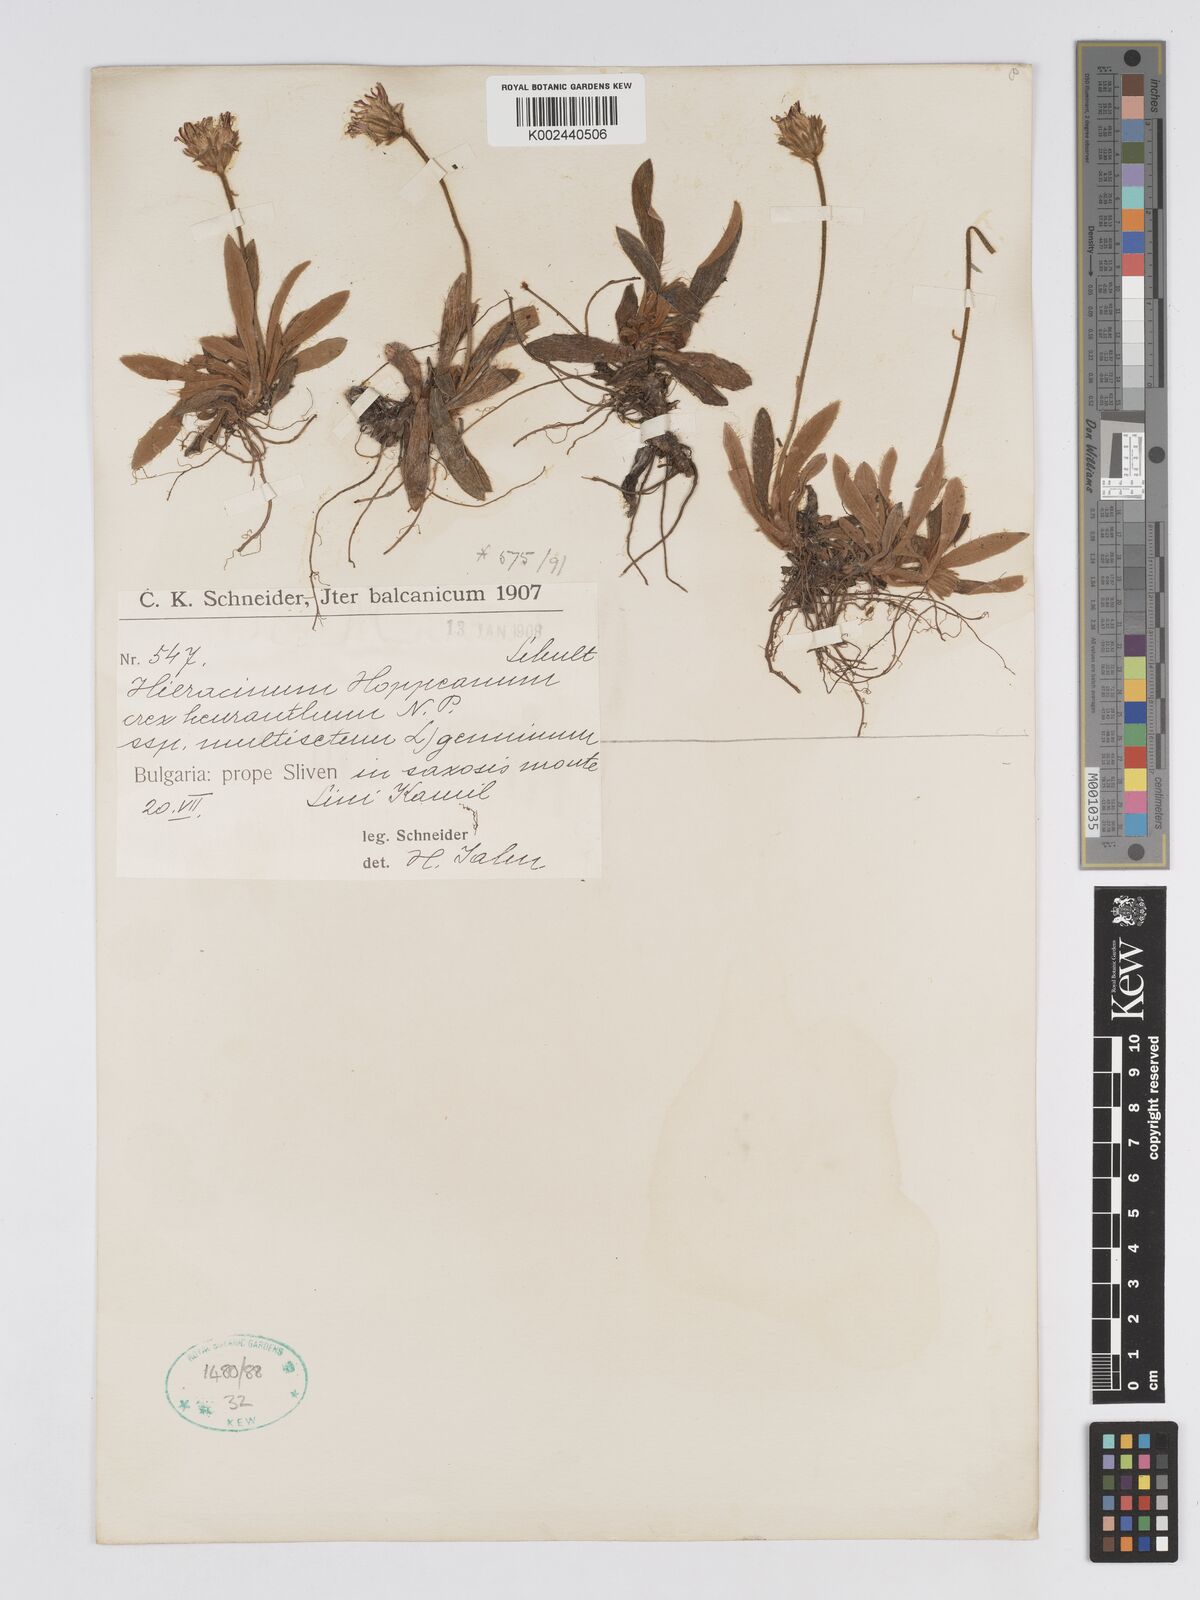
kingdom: Plantae
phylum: Tracheophyta
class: Magnoliopsida
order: Asterales
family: Asteraceae
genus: Pilosella
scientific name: Pilosella hypeurya
